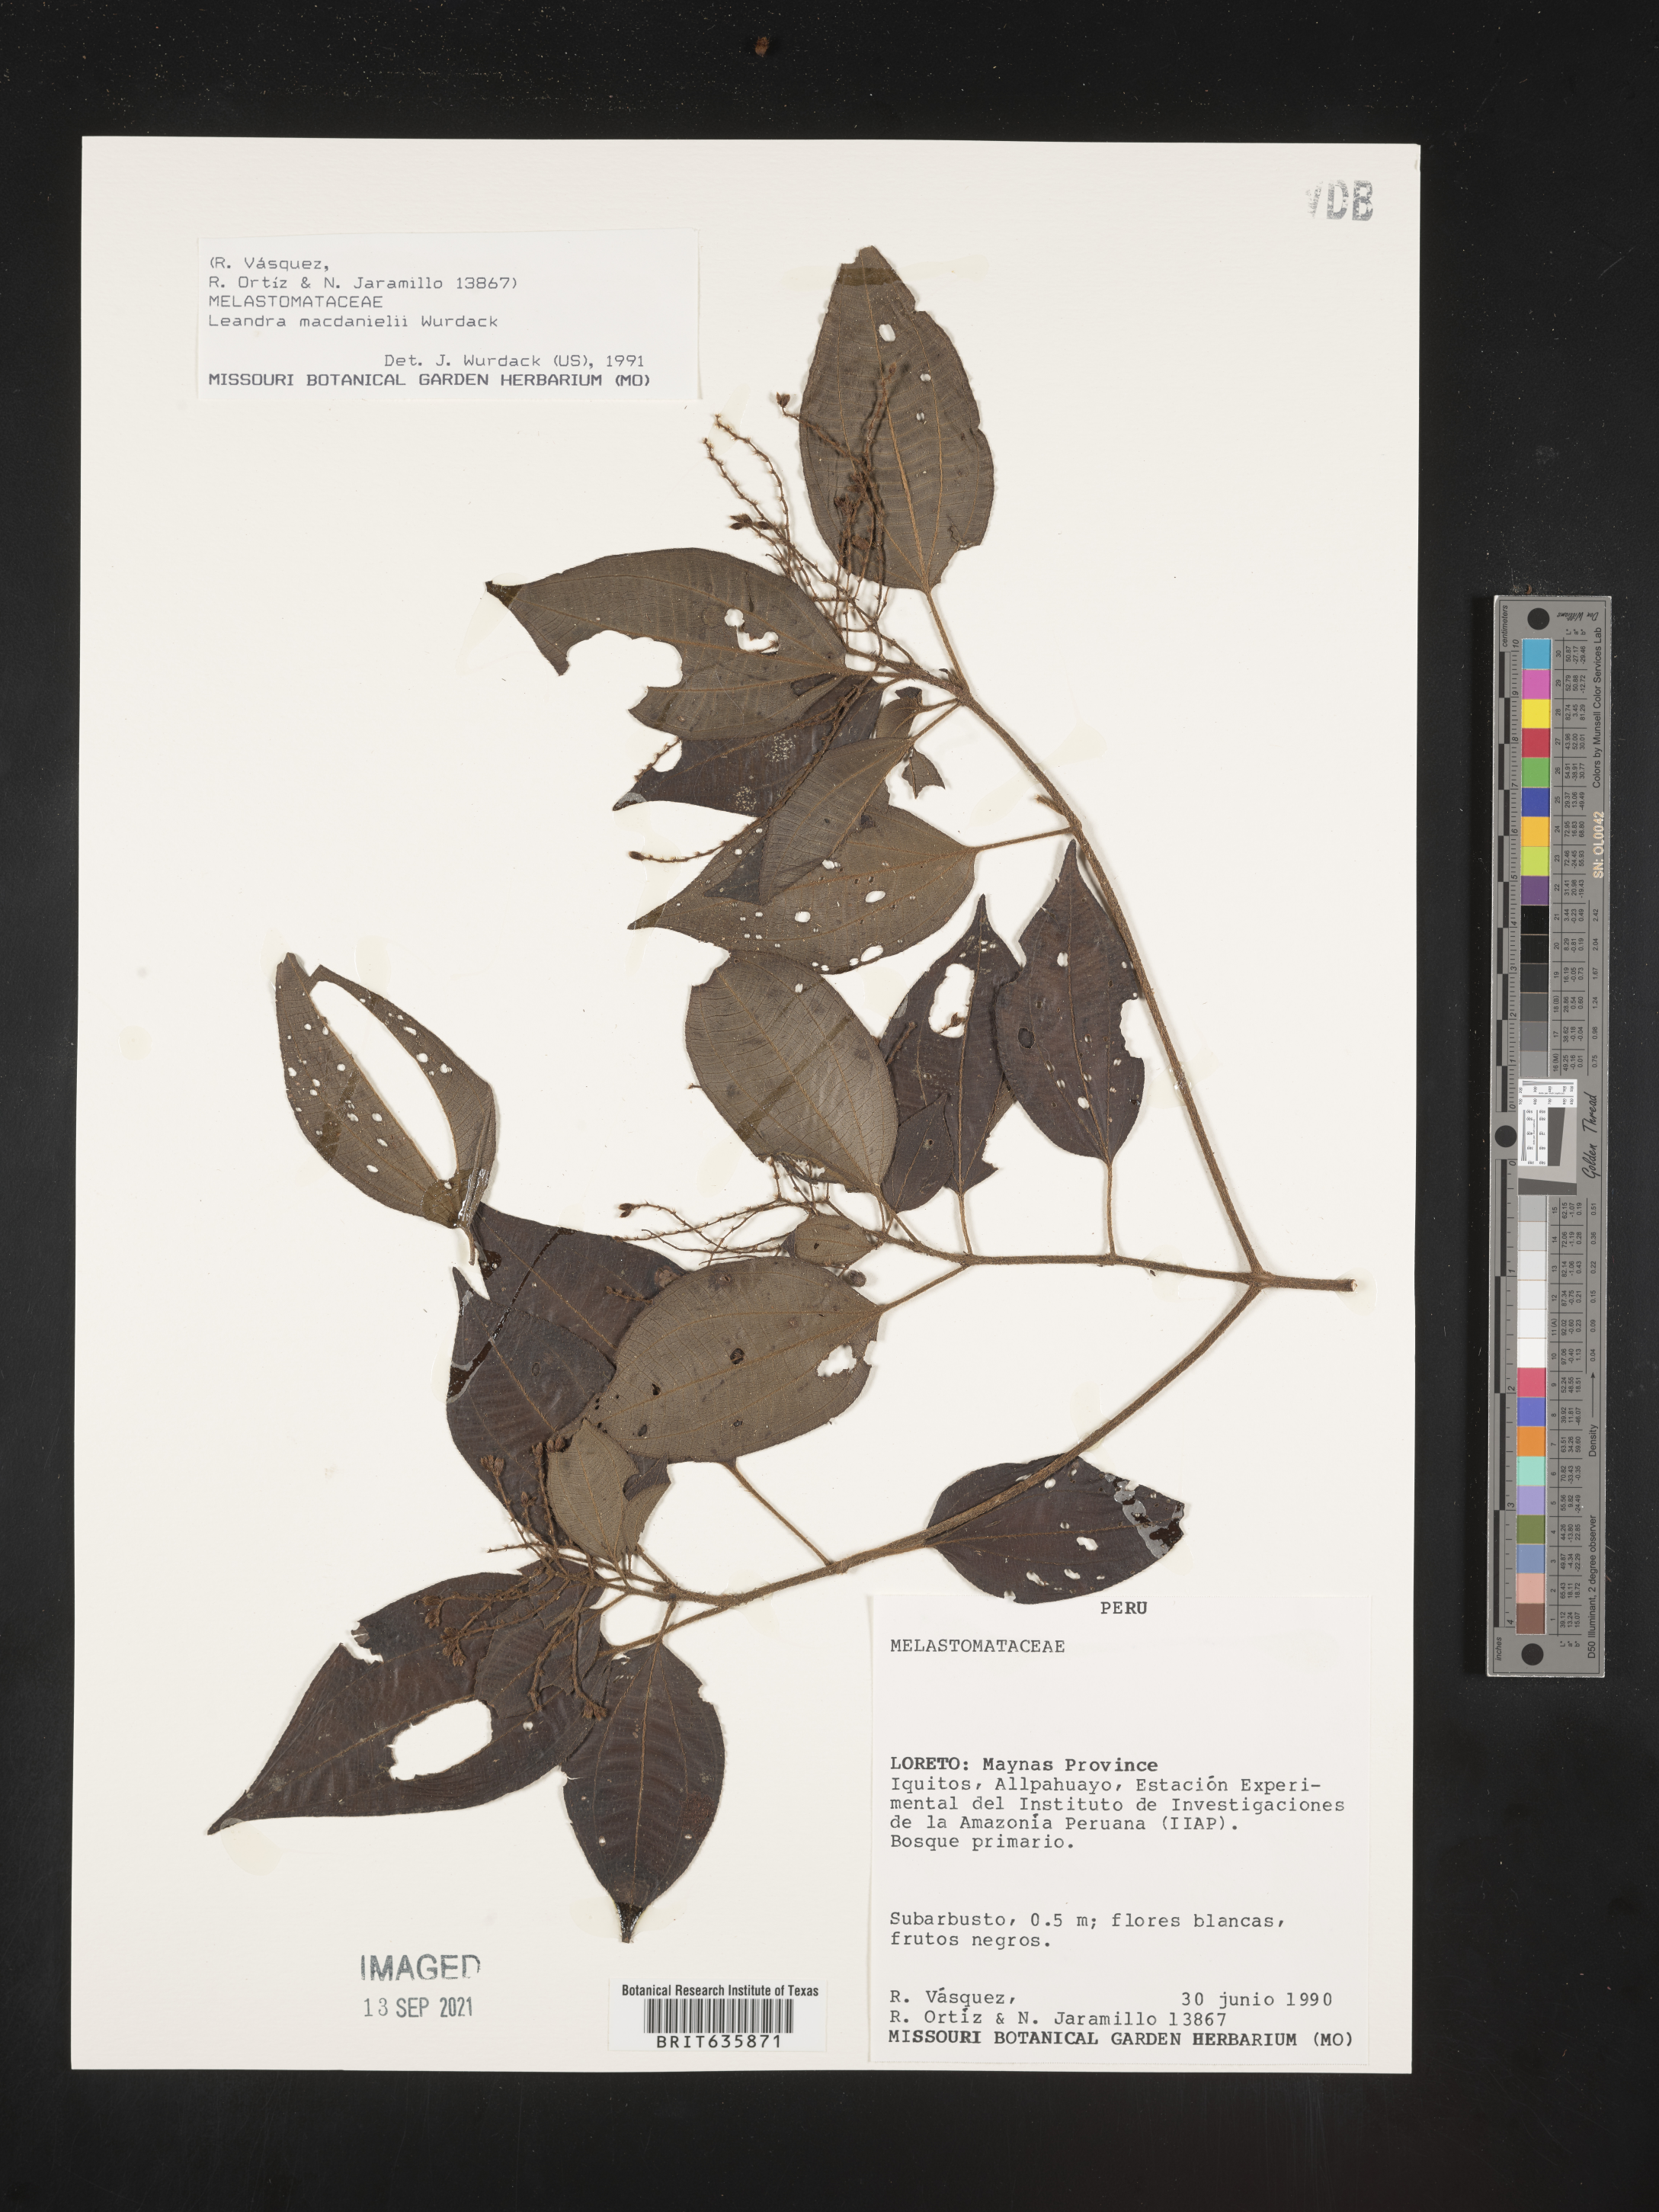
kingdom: Plantae
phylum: Tracheophyta
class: Magnoliopsida
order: Myrtales
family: Melastomataceae
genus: Miconia
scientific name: Miconia
